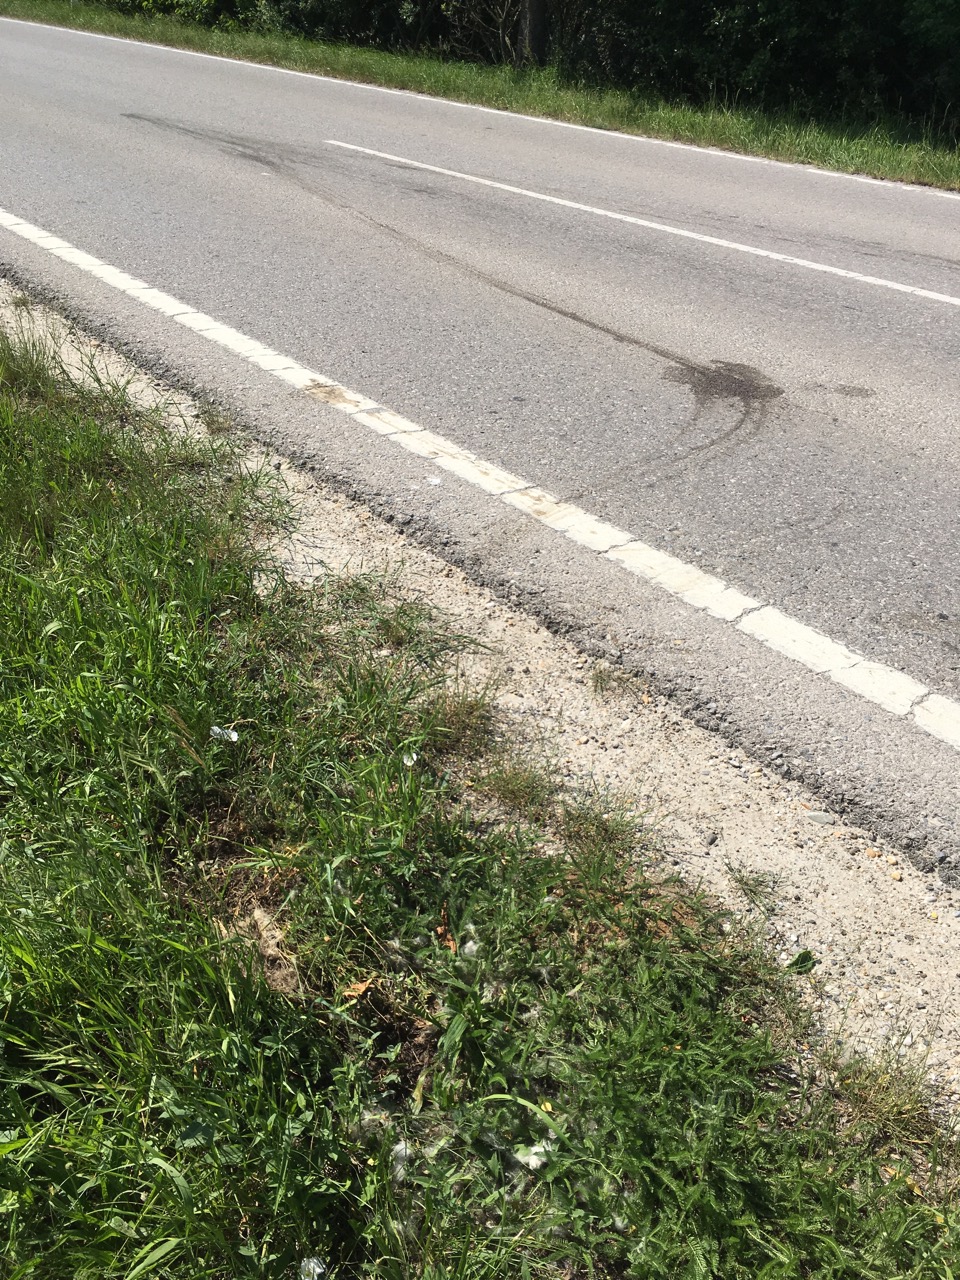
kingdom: Animalia
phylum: Chordata
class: Mammalia
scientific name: Mammalia
